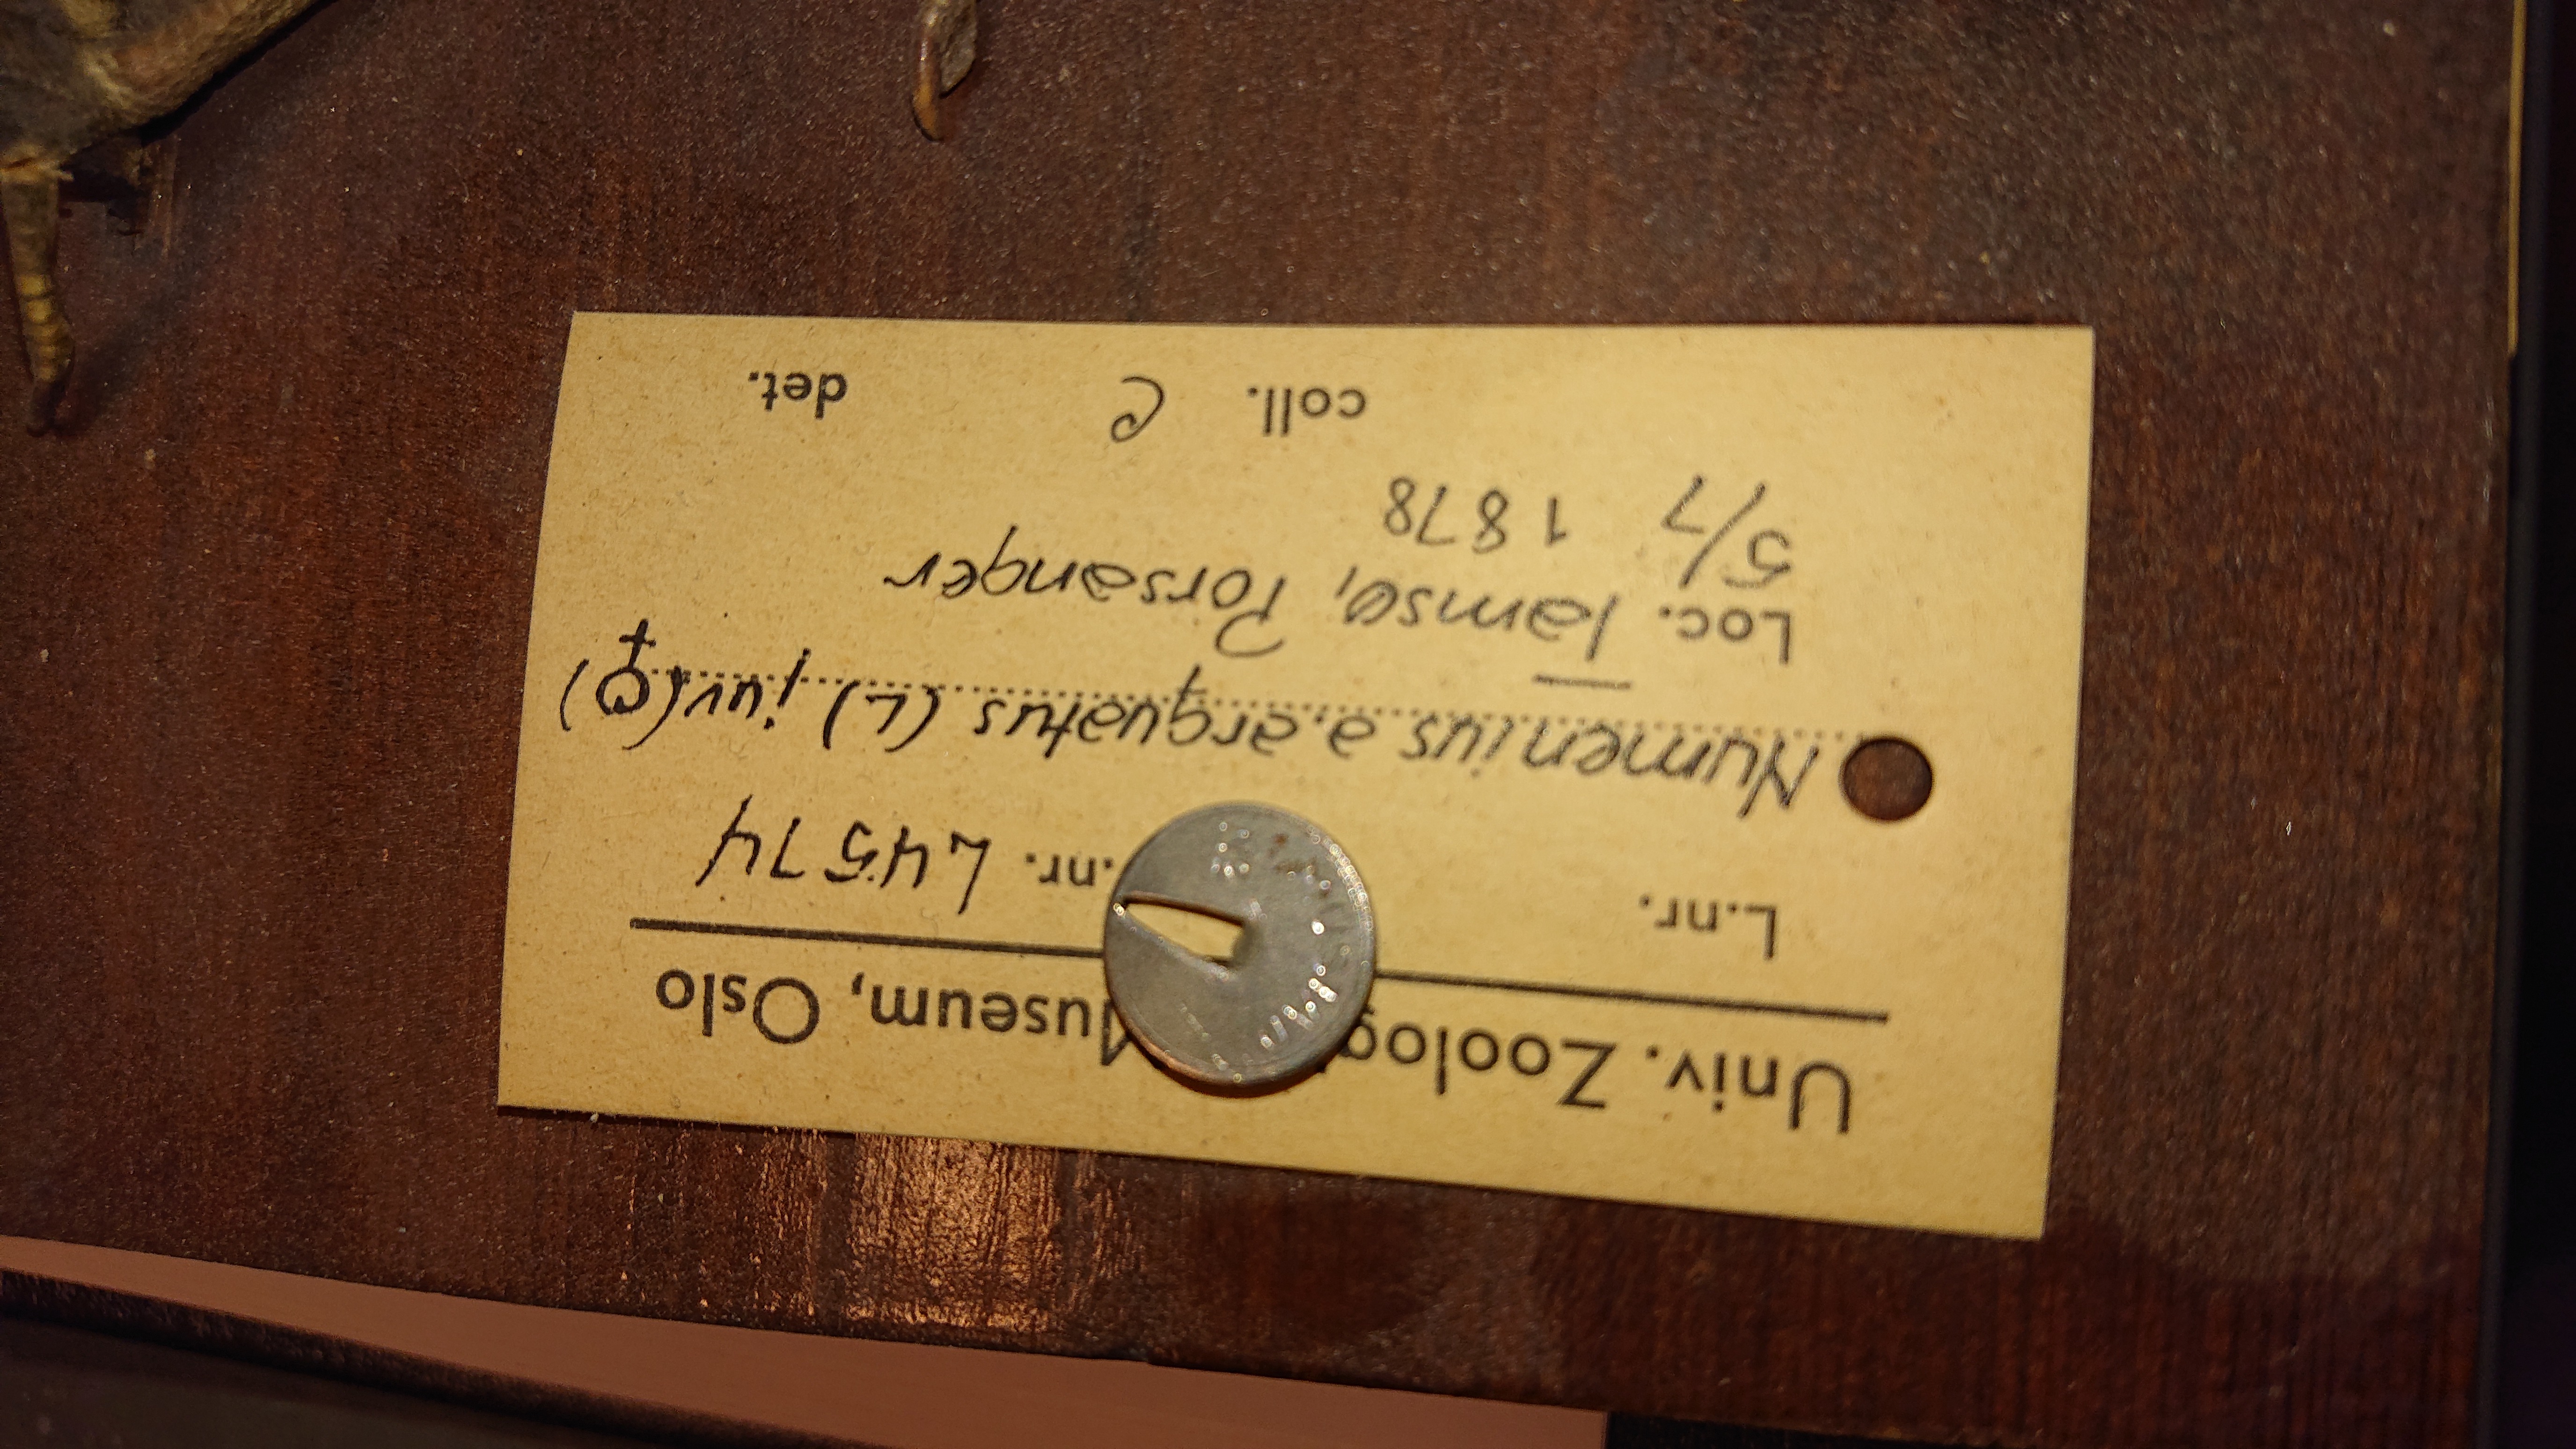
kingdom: Animalia
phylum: Chordata
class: Aves
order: Charadriiformes
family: Scolopacidae
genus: Numenius
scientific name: Numenius arquata
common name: Eurasian curlew
